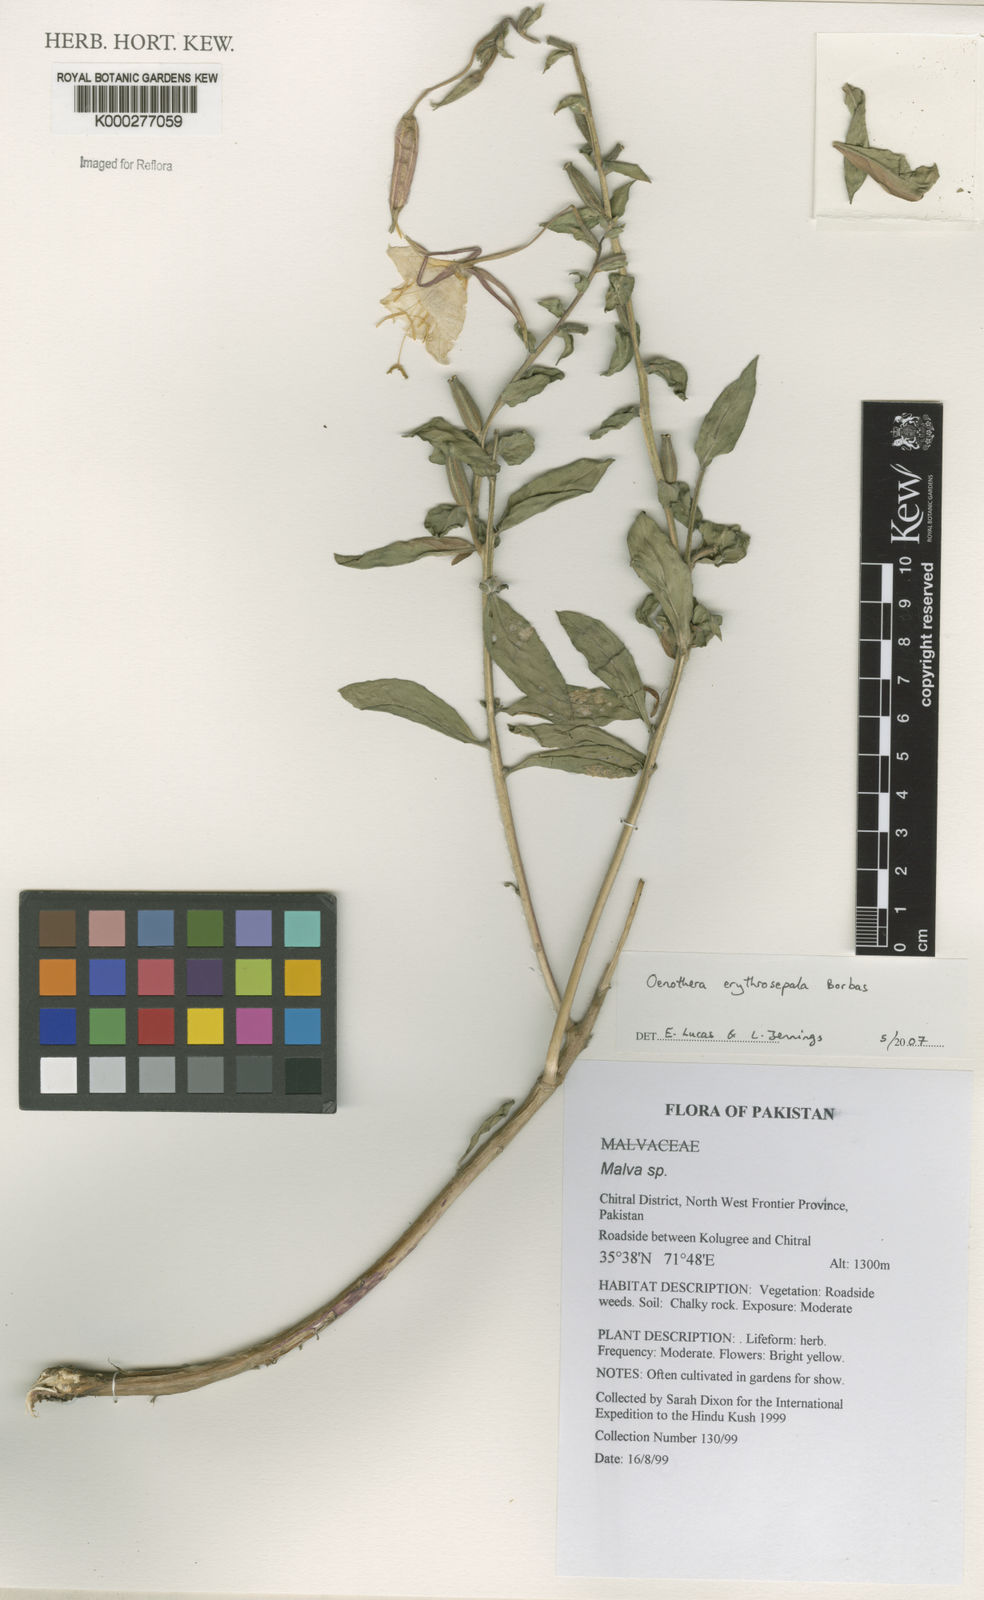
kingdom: Plantae
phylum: Tracheophyta
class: Magnoliopsida
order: Myrtales
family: Onagraceae
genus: Oenothera
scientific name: Oenothera glazioviana
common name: Large-flowered evening-primrose
